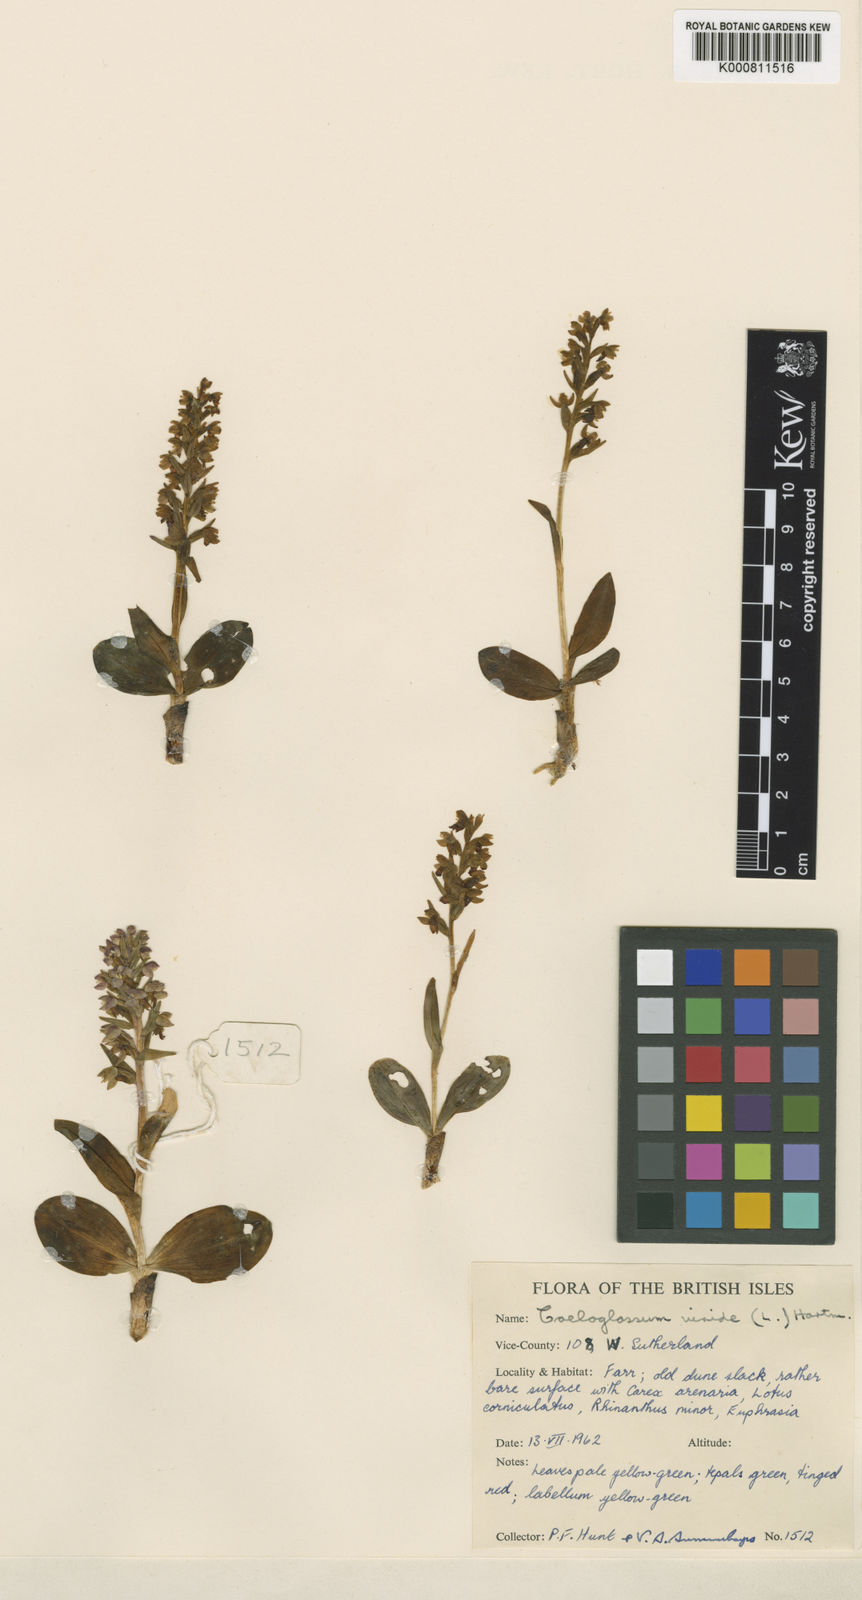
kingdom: Plantae
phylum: Tracheophyta
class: Liliopsida
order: Asparagales
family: Orchidaceae
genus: Dactylorhiza
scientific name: Dactylorhiza viridis
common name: Longbract frog orchid
